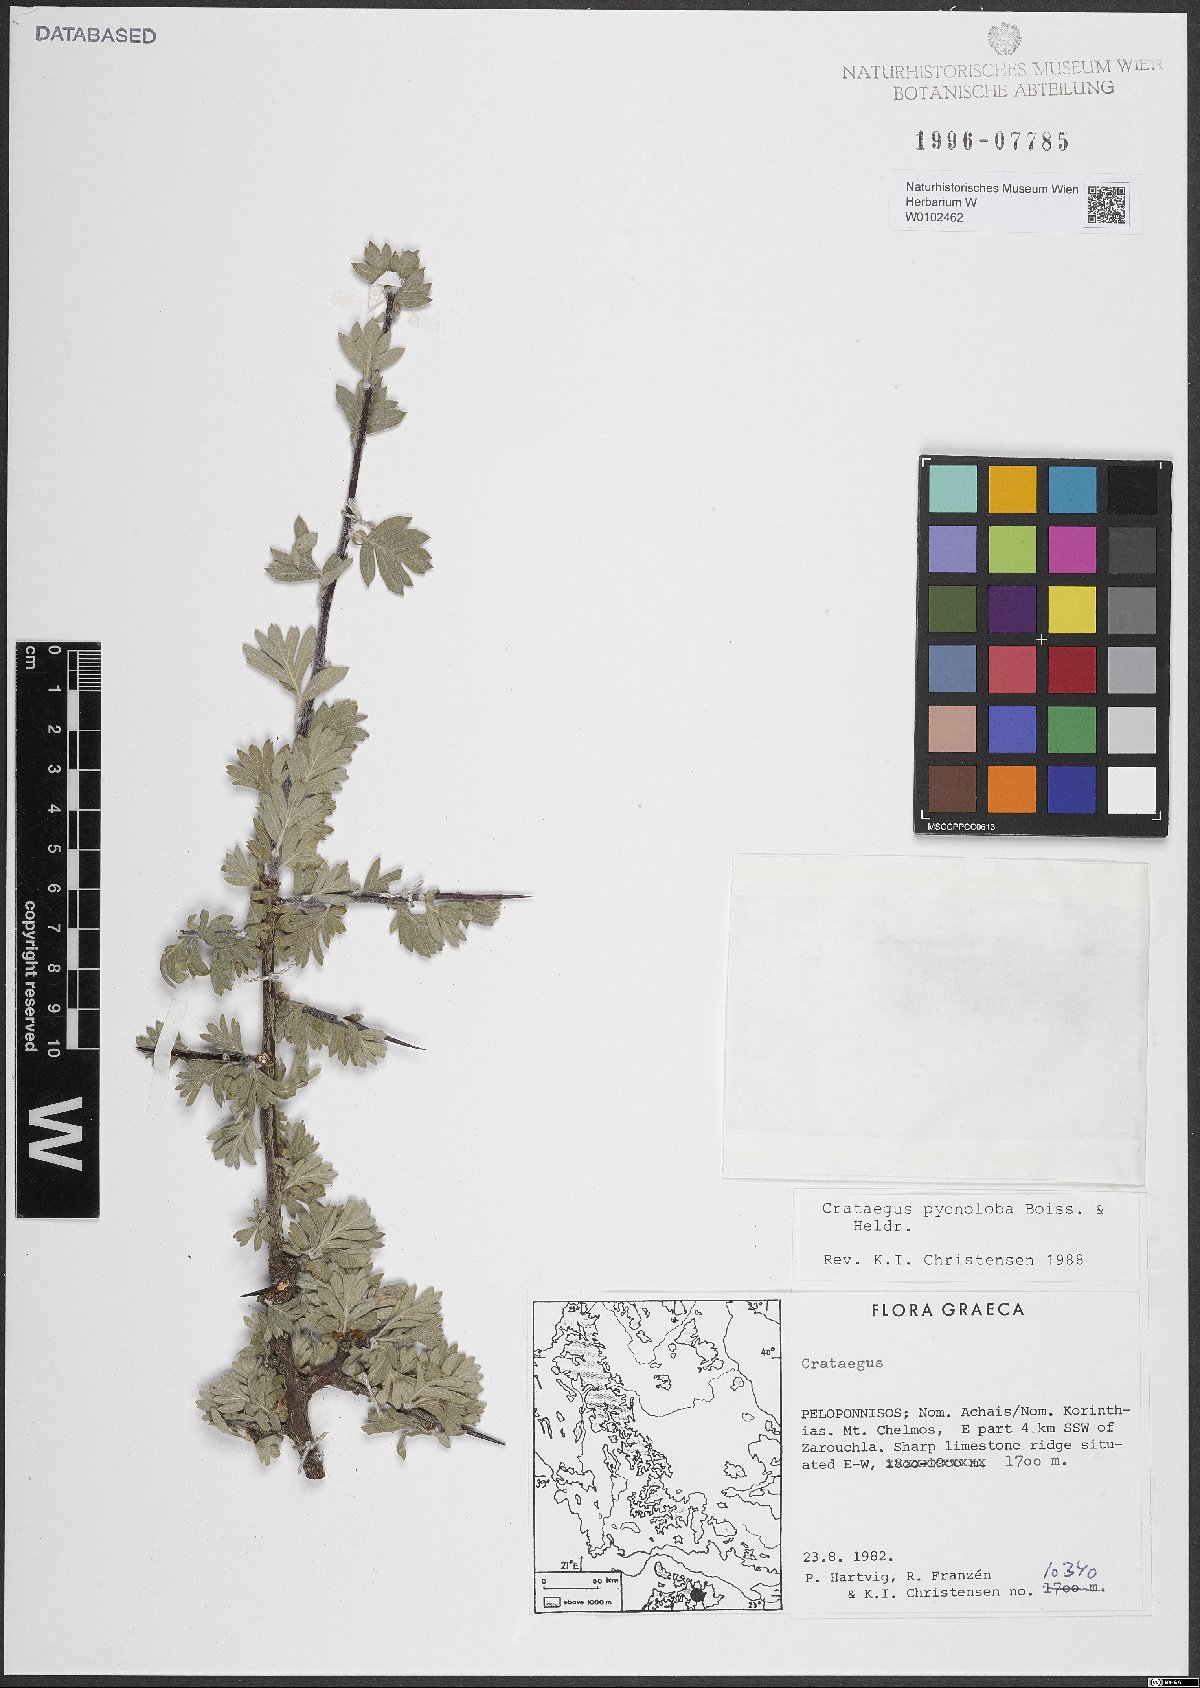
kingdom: Plantae
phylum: Tracheophyta
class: Magnoliopsida
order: Rosales
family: Rosaceae
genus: Crataegus
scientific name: Crataegus pycnoloba
